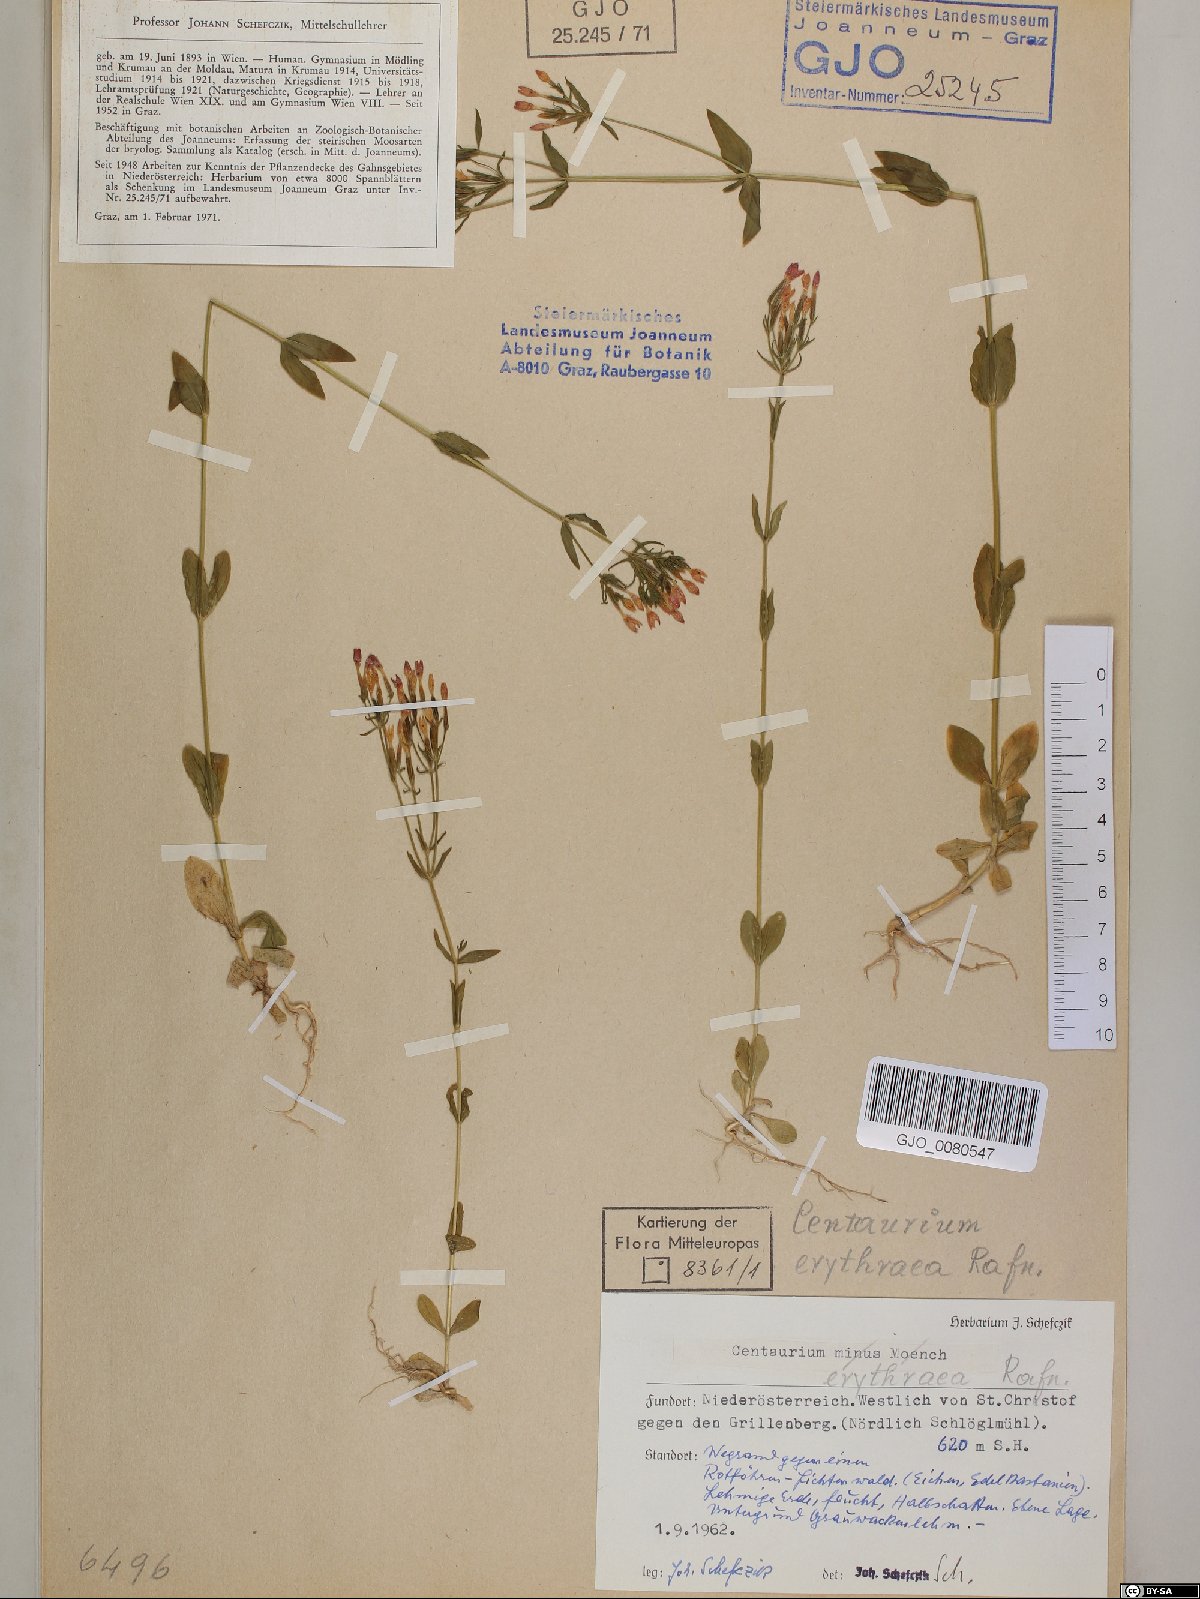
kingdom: Plantae
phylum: Tracheophyta
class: Magnoliopsida
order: Gentianales
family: Gentianaceae
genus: Centaurium
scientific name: Centaurium erythraea
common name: Common centaury
